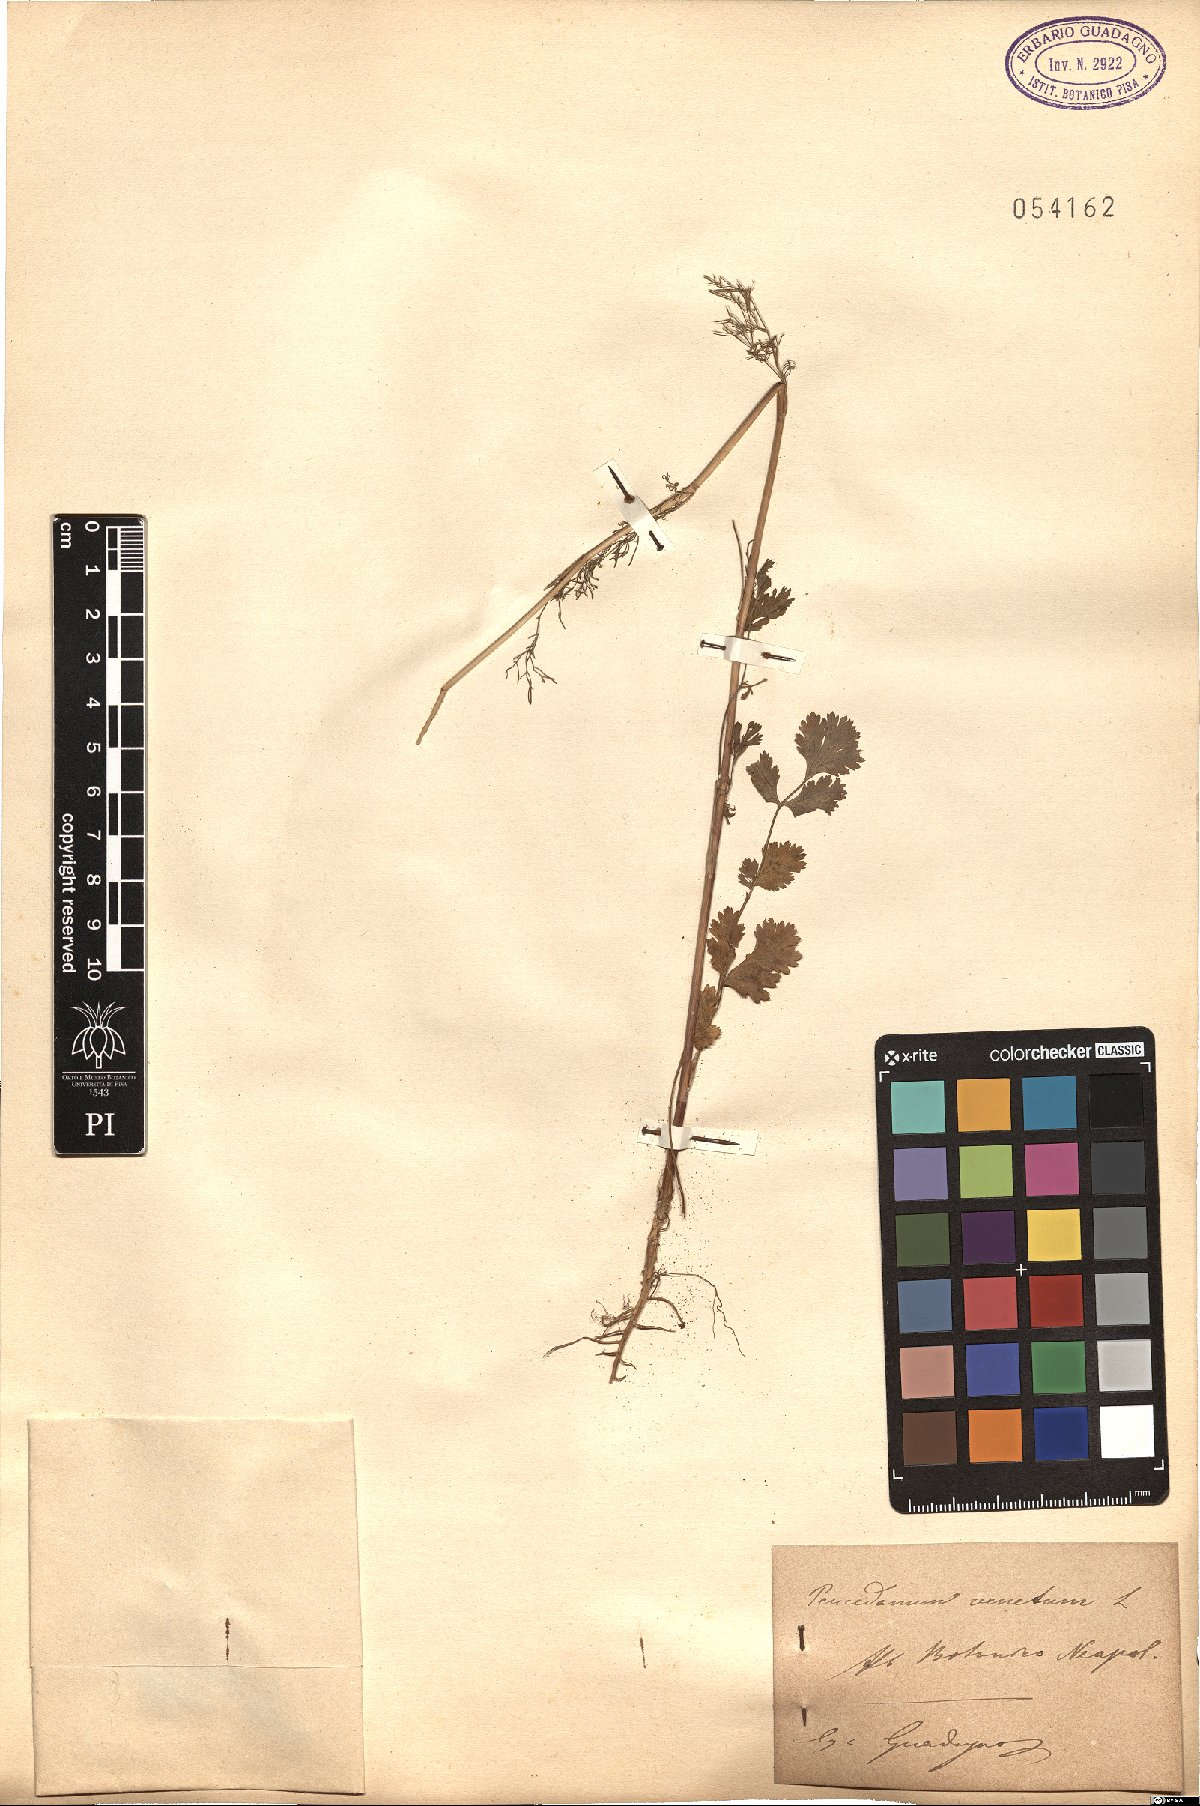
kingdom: Plantae
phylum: Tracheophyta
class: Magnoliopsida
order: Apiales
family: Apiaceae
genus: Xanthoselinum
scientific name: Xanthoselinum alsaticum
